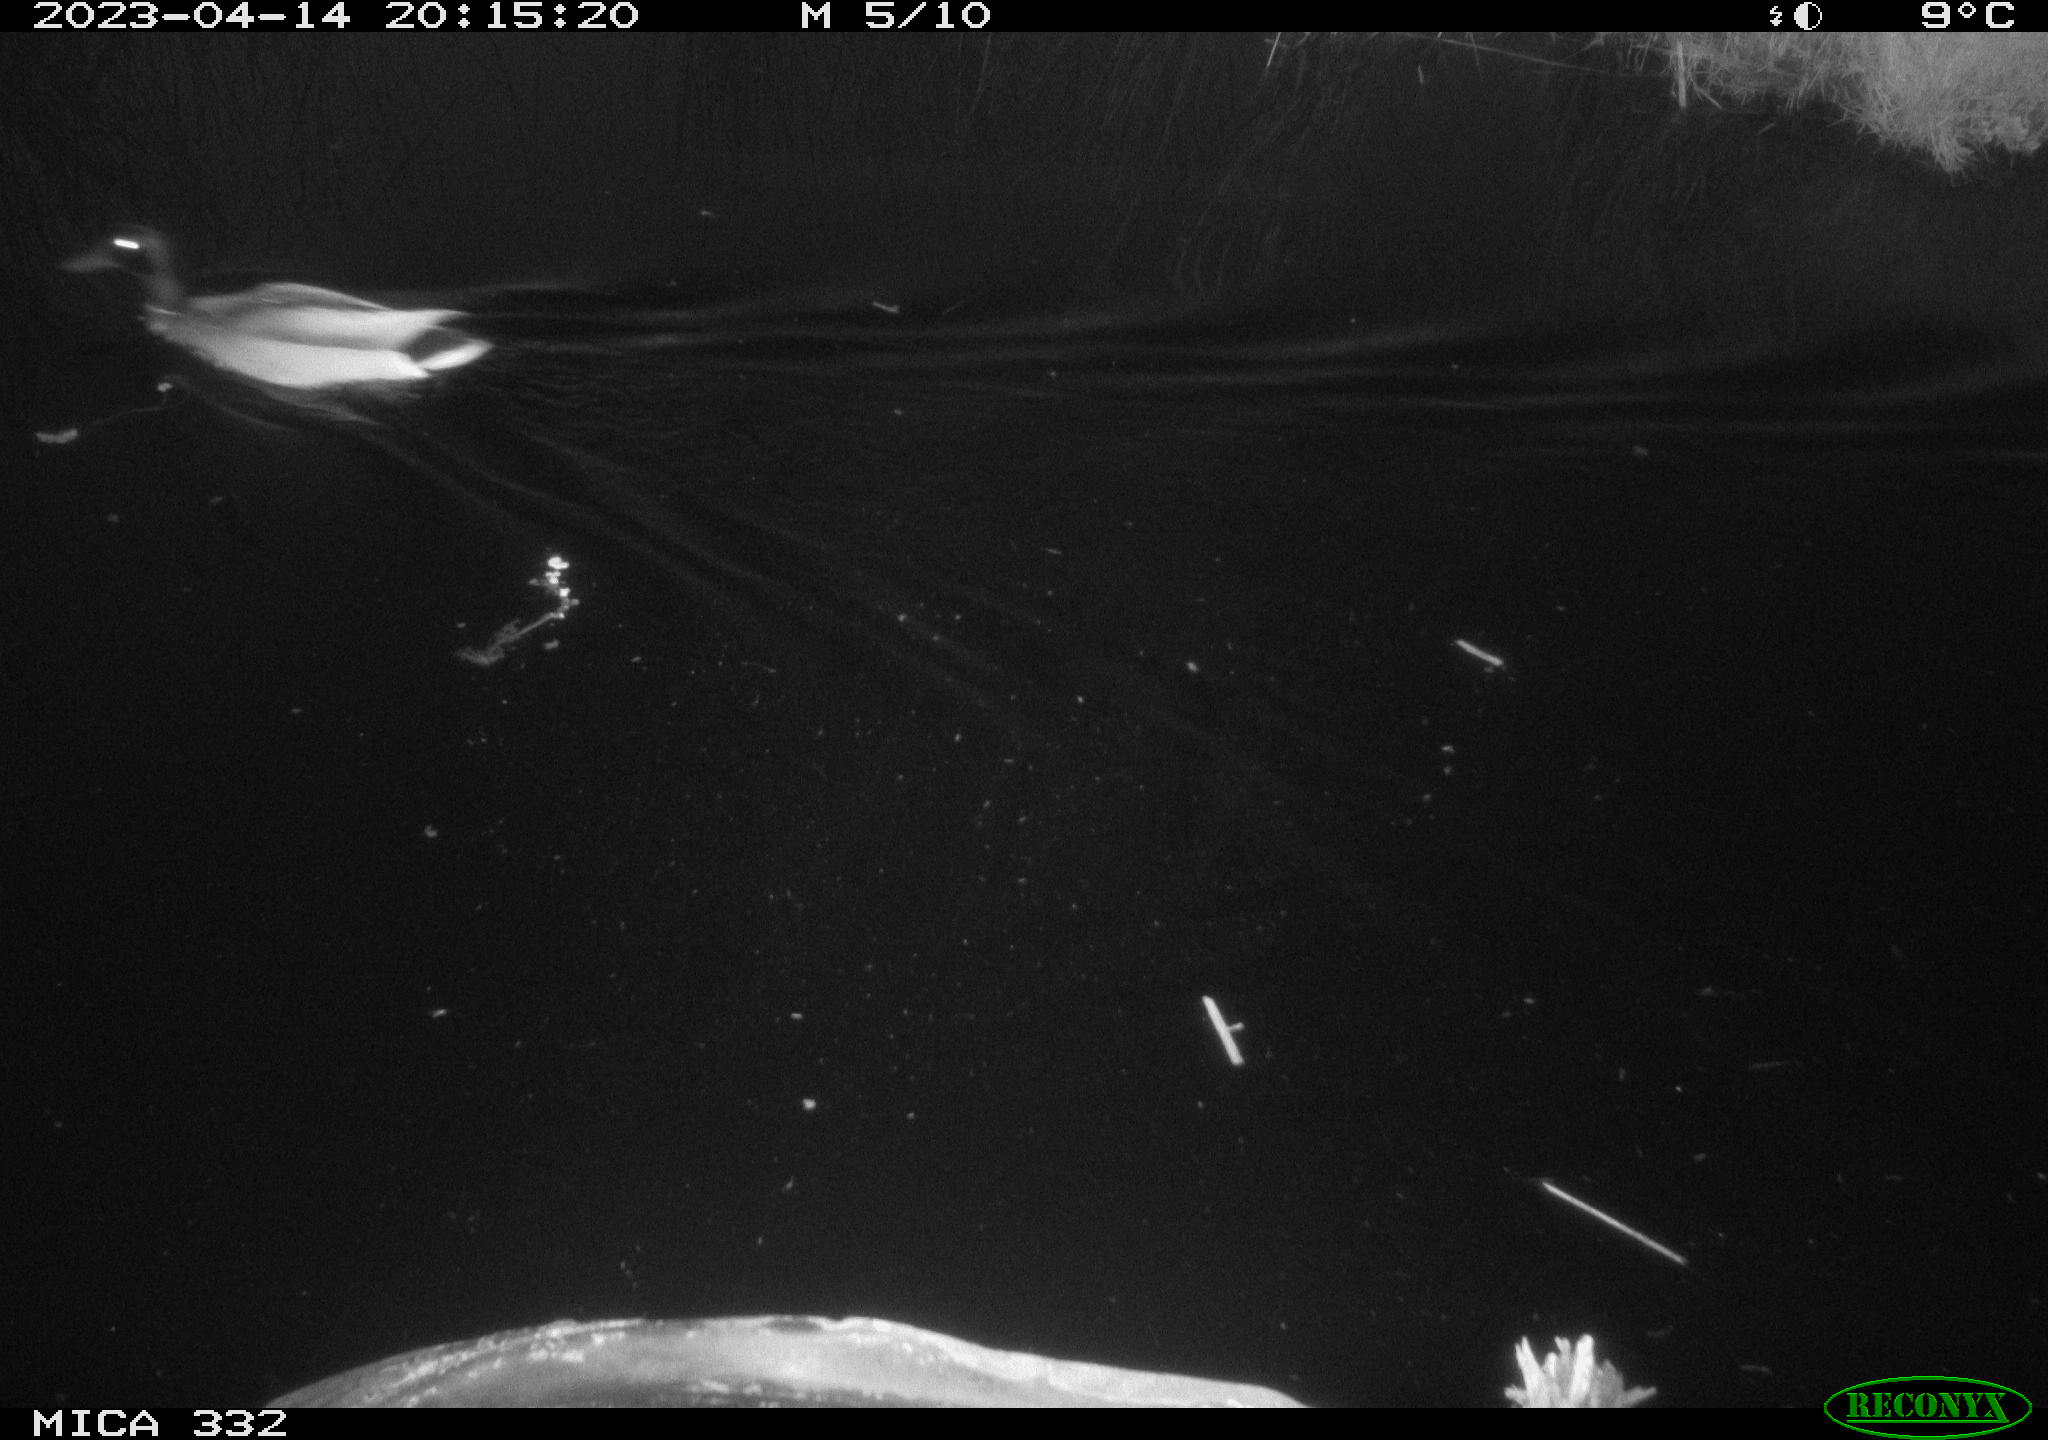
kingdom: Animalia
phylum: Chordata
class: Aves
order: Anseriformes
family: Anatidae
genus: Anas
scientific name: Anas platyrhynchos
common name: Mallard
